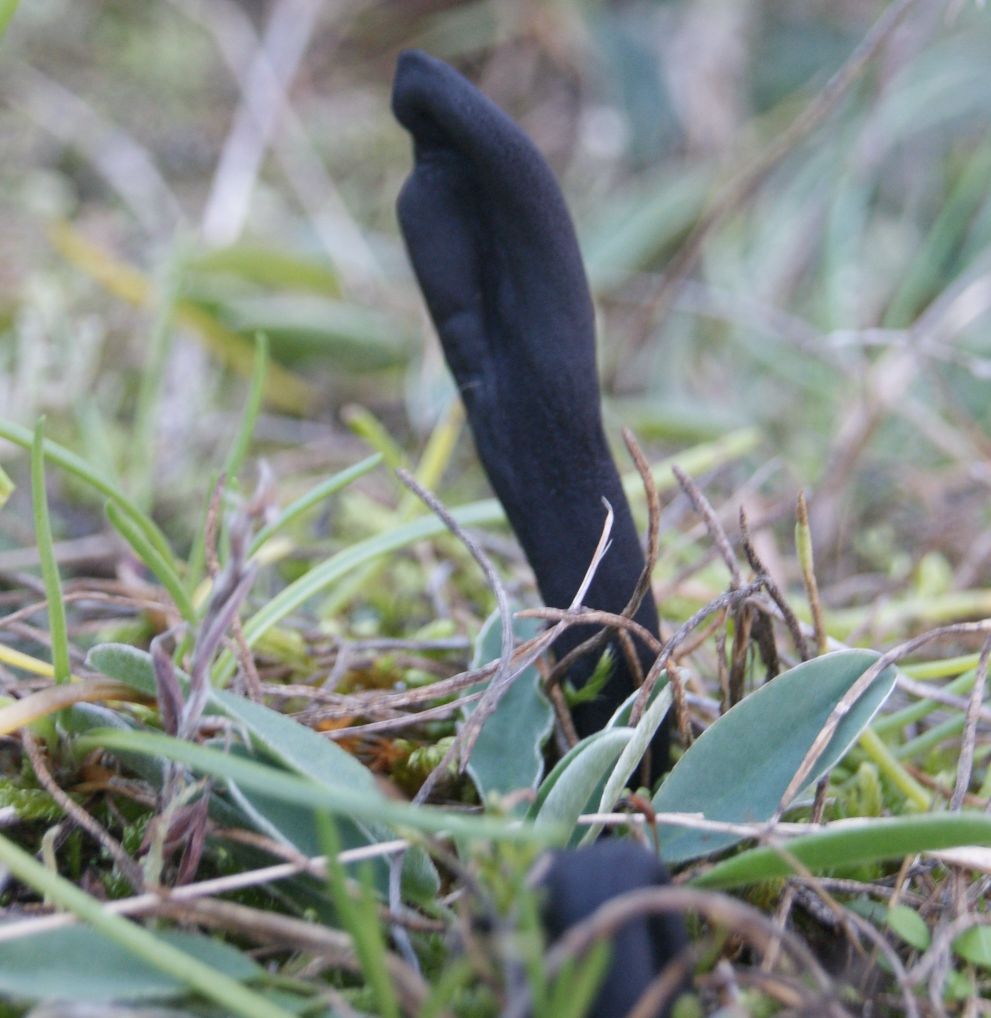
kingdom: Fungi
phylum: Ascomycota
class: Geoglossomycetes
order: Geoglossales
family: Geoglossaceae
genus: Geoglossum
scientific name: Geoglossum cookeianum
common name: bred jordtunge
